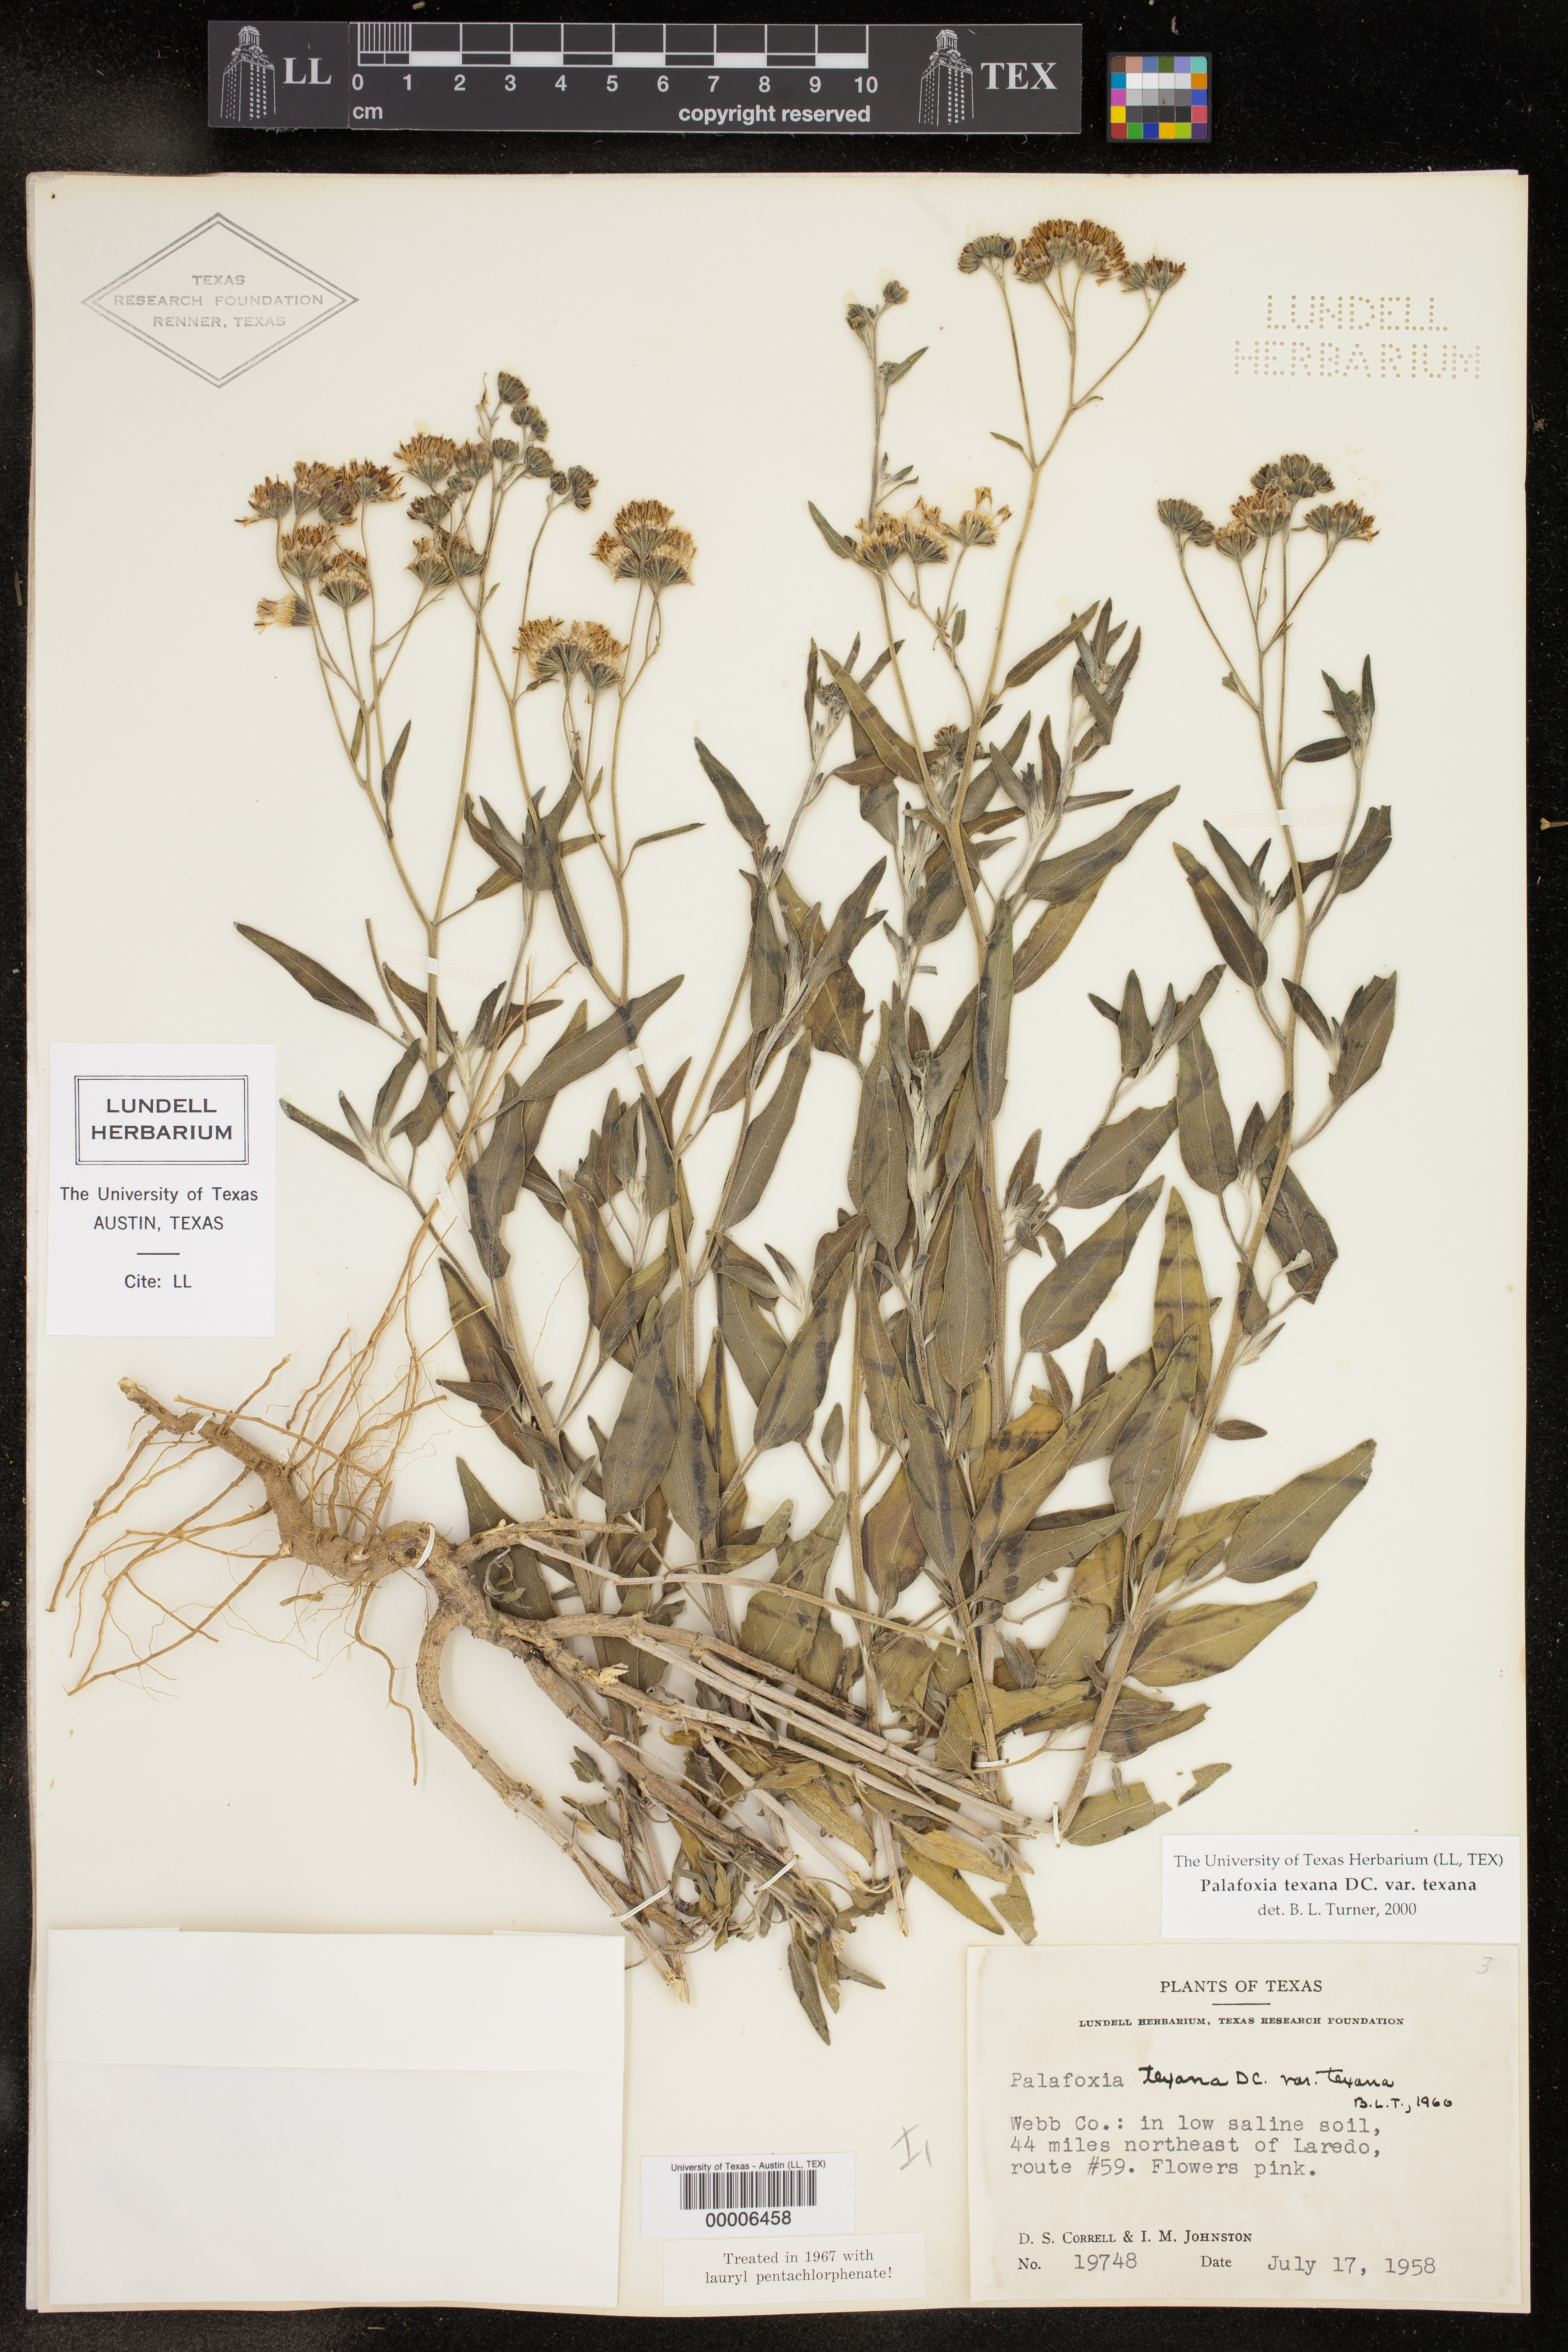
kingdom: Plantae
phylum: Tracheophyta
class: Magnoliopsida
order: Asterales
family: Asteraceae
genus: Palafoxia
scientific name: Palafoxia texana
